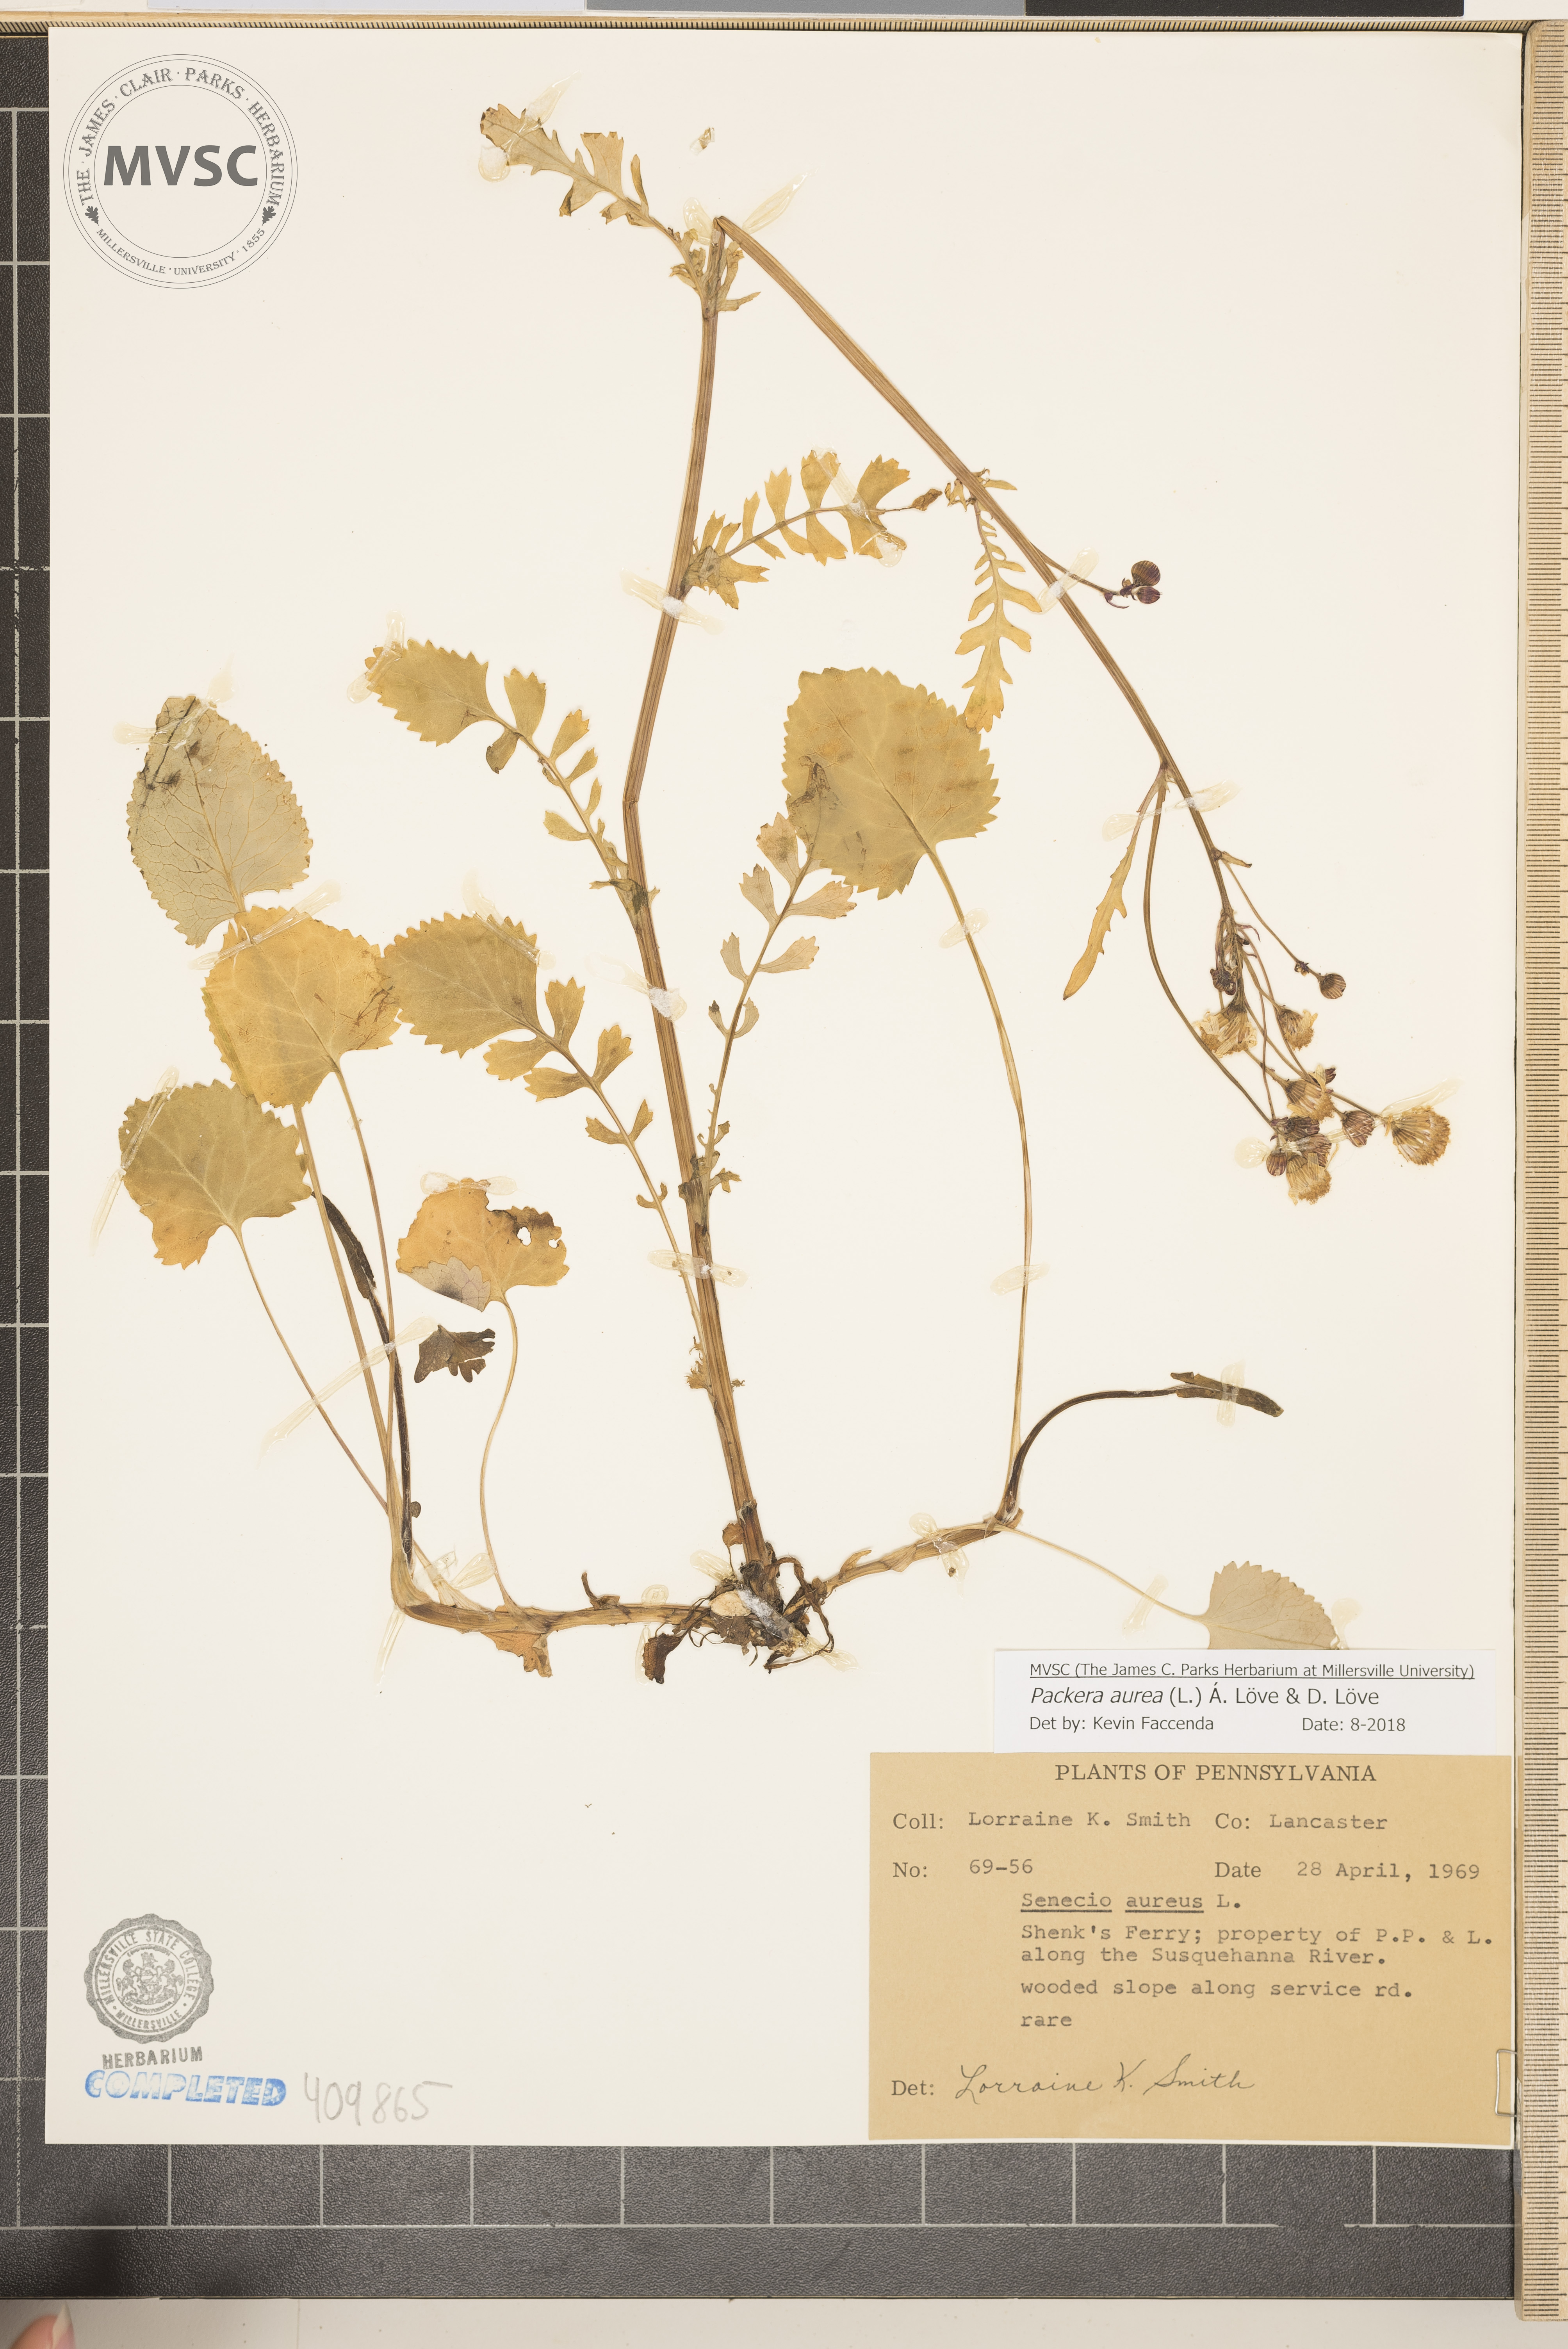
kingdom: Plantae
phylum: Tracheophyta
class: Magnoliopsida
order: Asterales
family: Asteraceae
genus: Packera
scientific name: Packera aurea
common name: Golden groundsel
